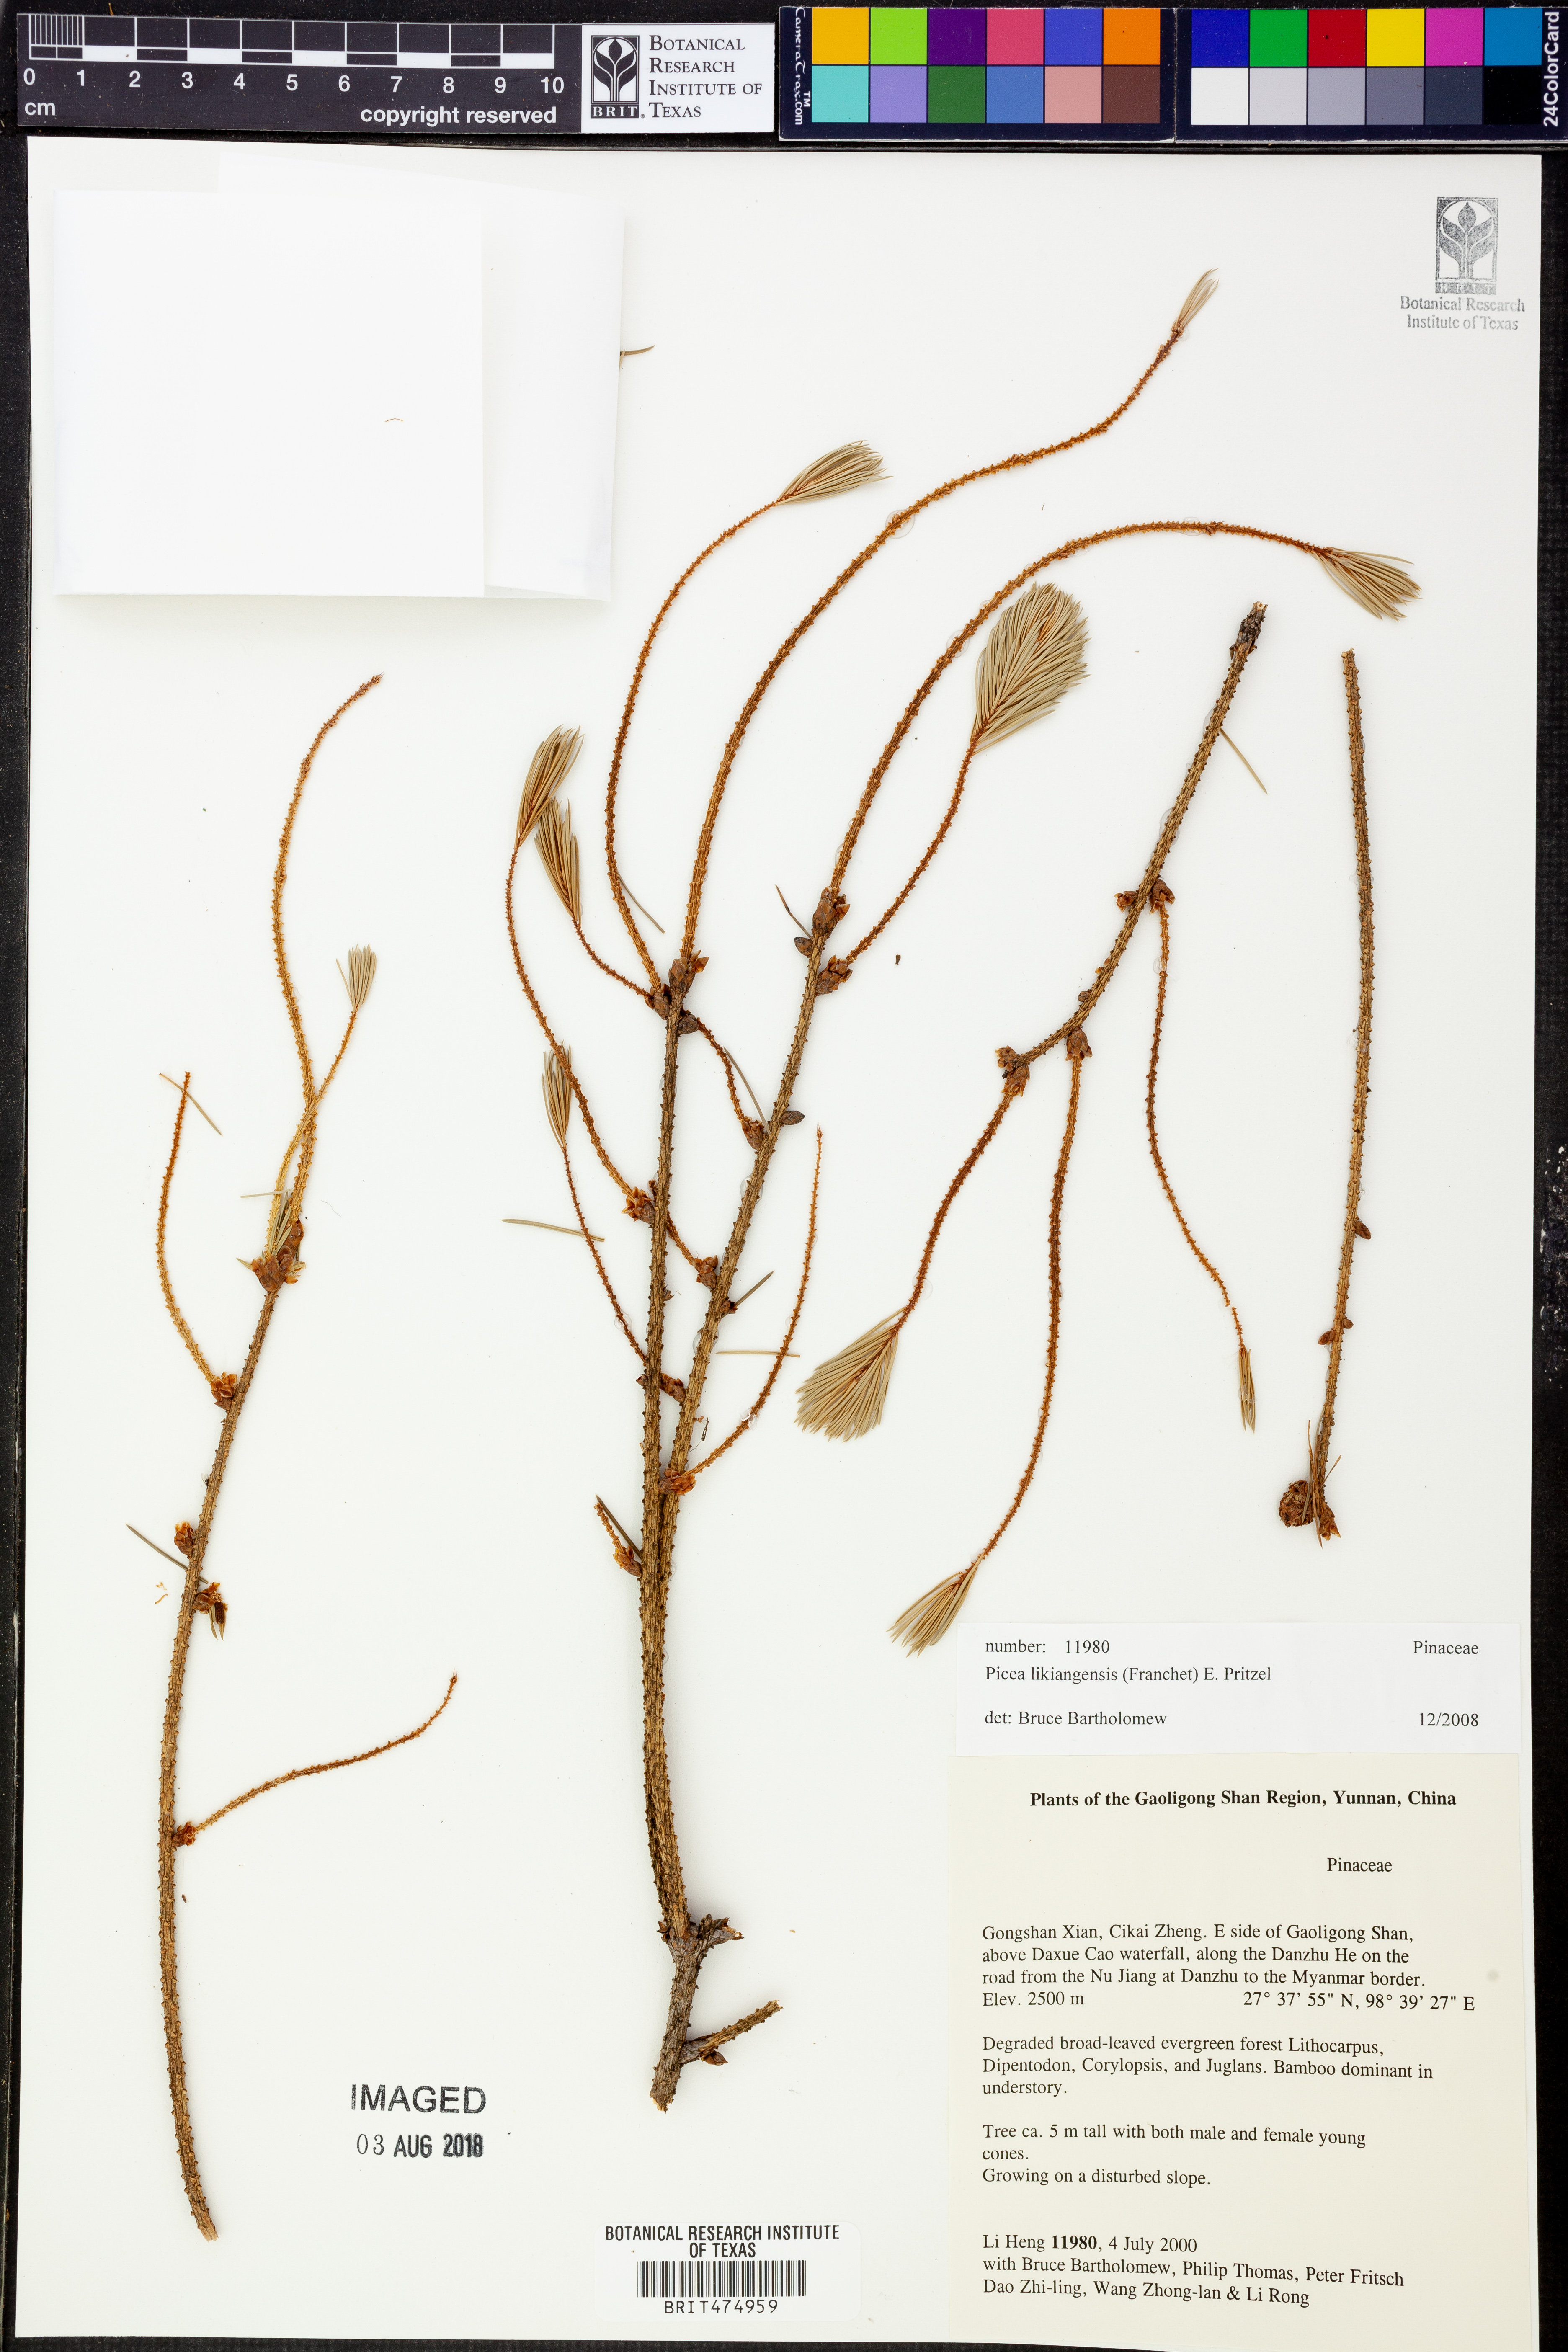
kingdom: Plantae
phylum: Tracheophyta
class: Pinopsida
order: Pinales
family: Pinaceae
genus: Picea
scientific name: Picea likiangensis
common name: Likiang spruce
